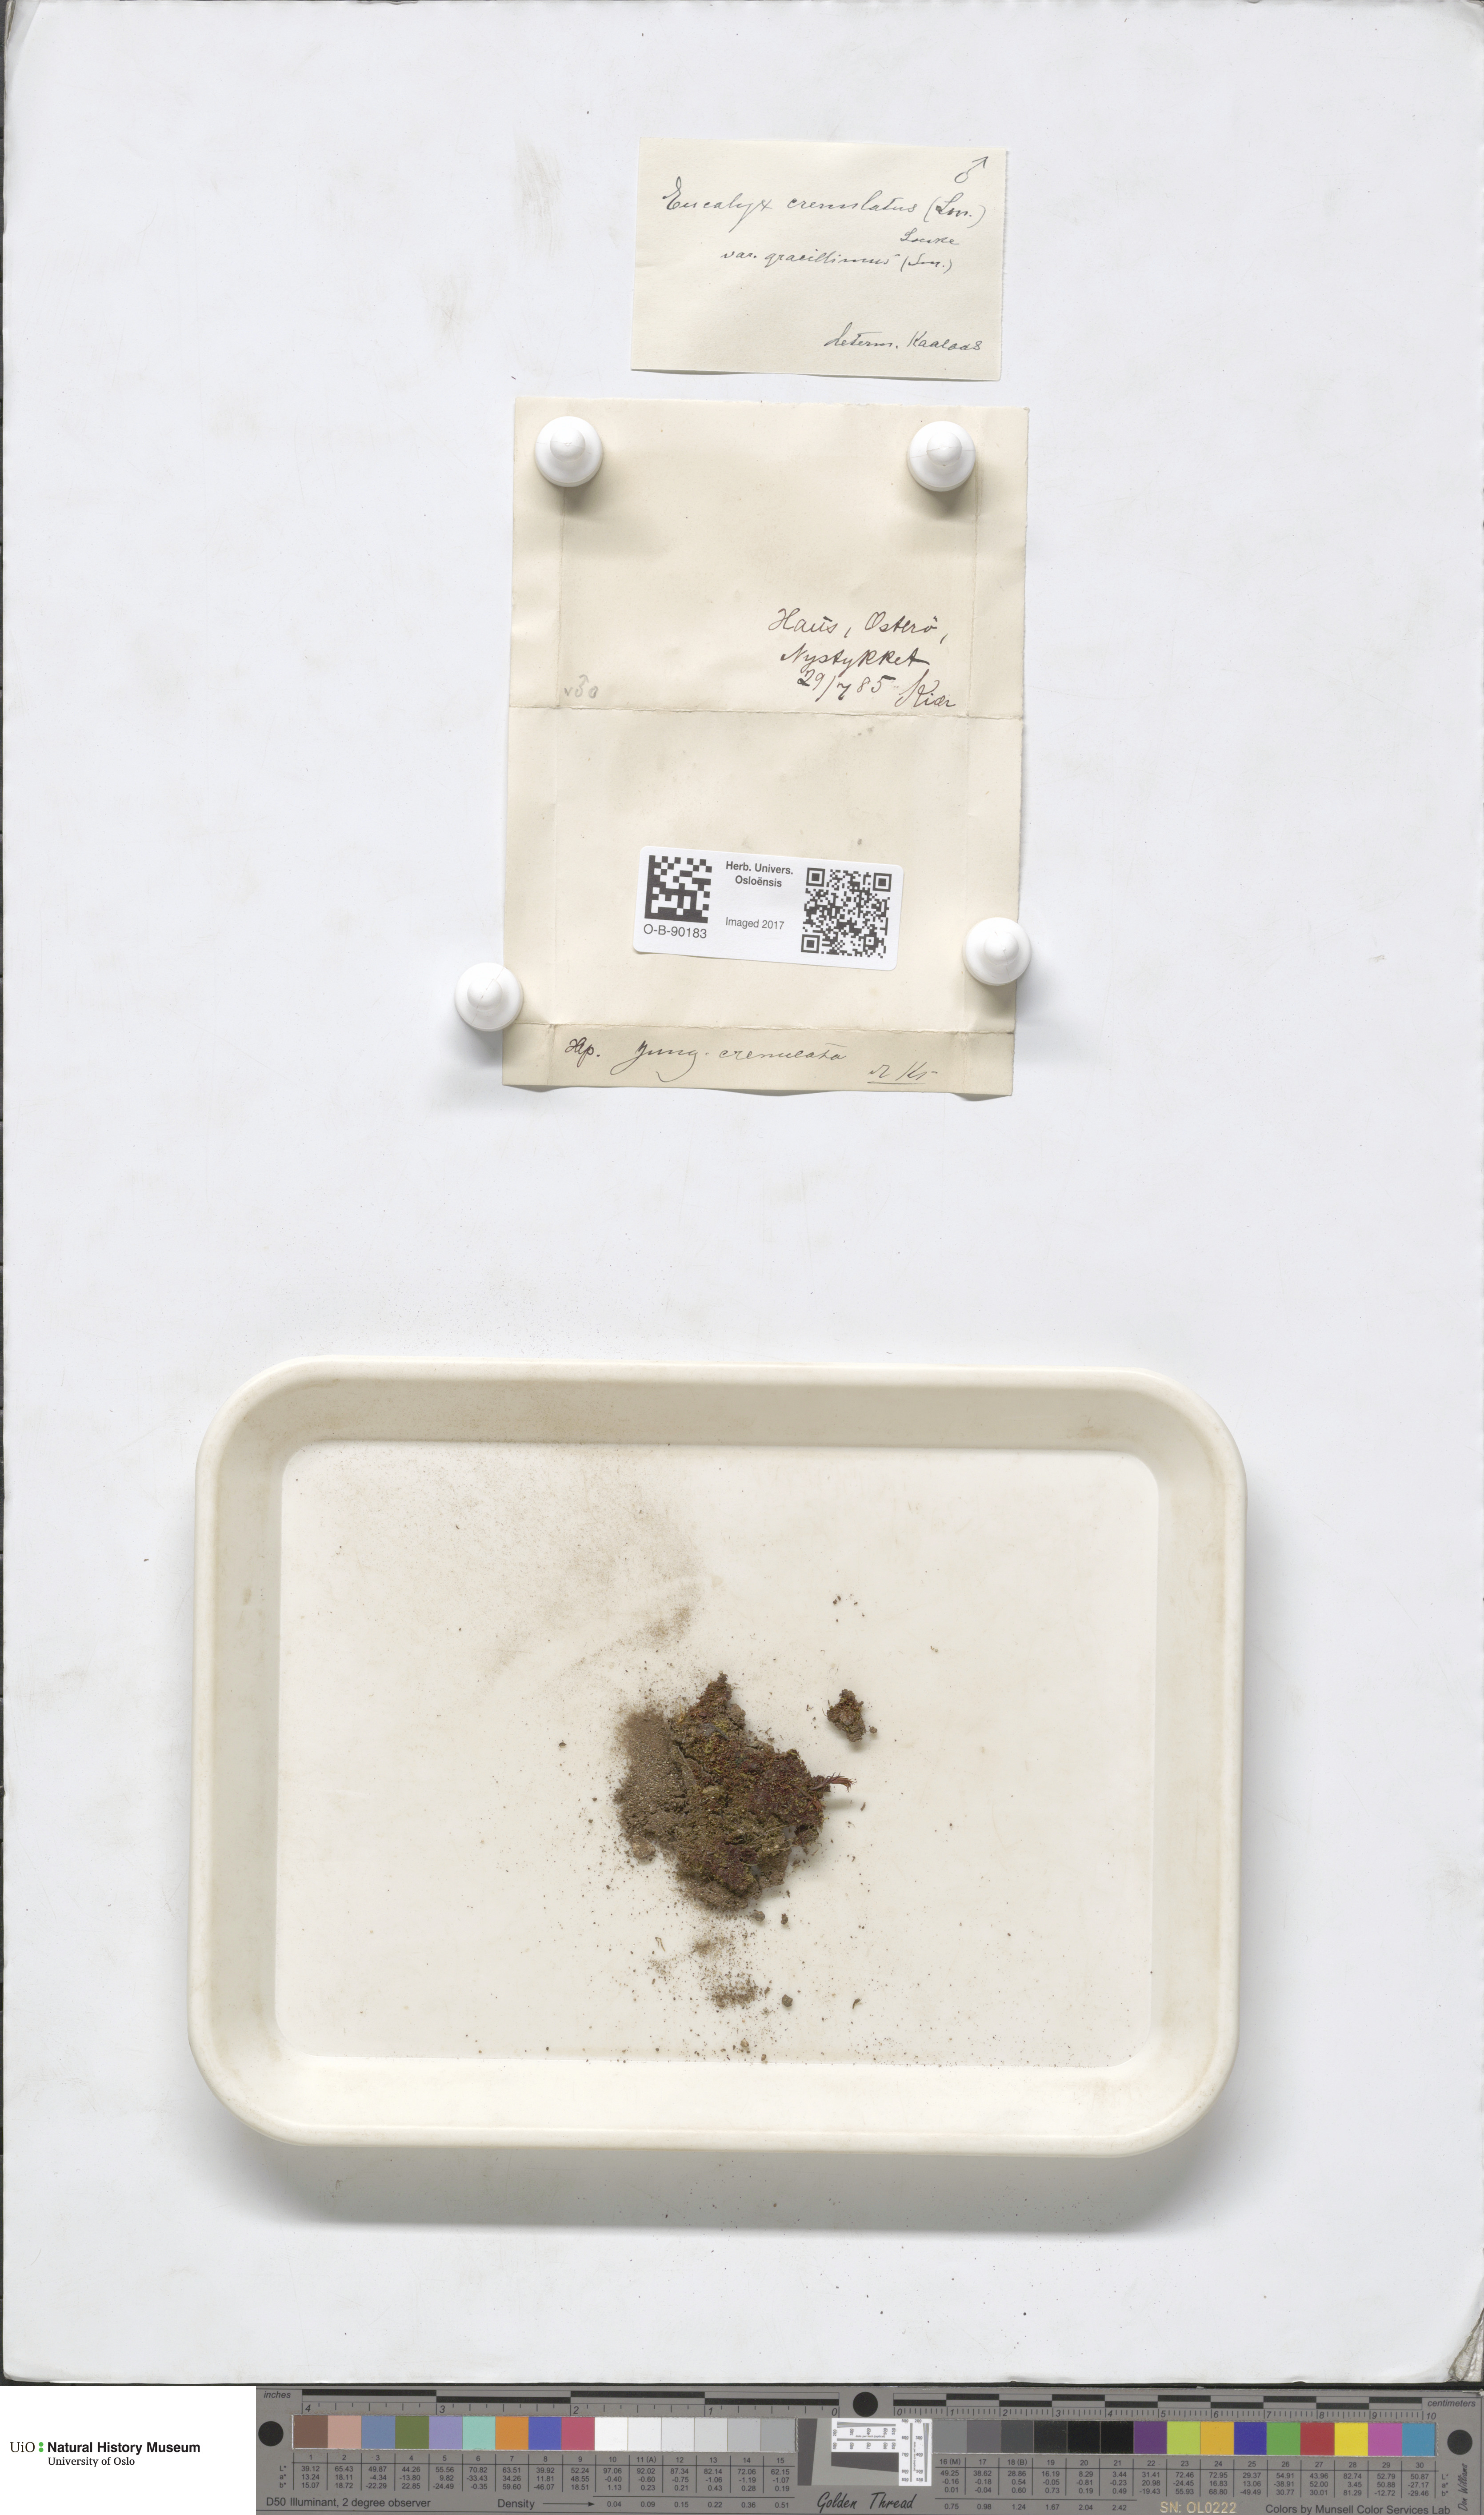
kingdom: Plantae
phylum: Marchantiophyta
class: Jungermanniopsida
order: Jungermanniales
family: Solenostomataceae
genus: Solenostoma
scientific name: Solenostoma gracillimum
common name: Crenulated flapwort
